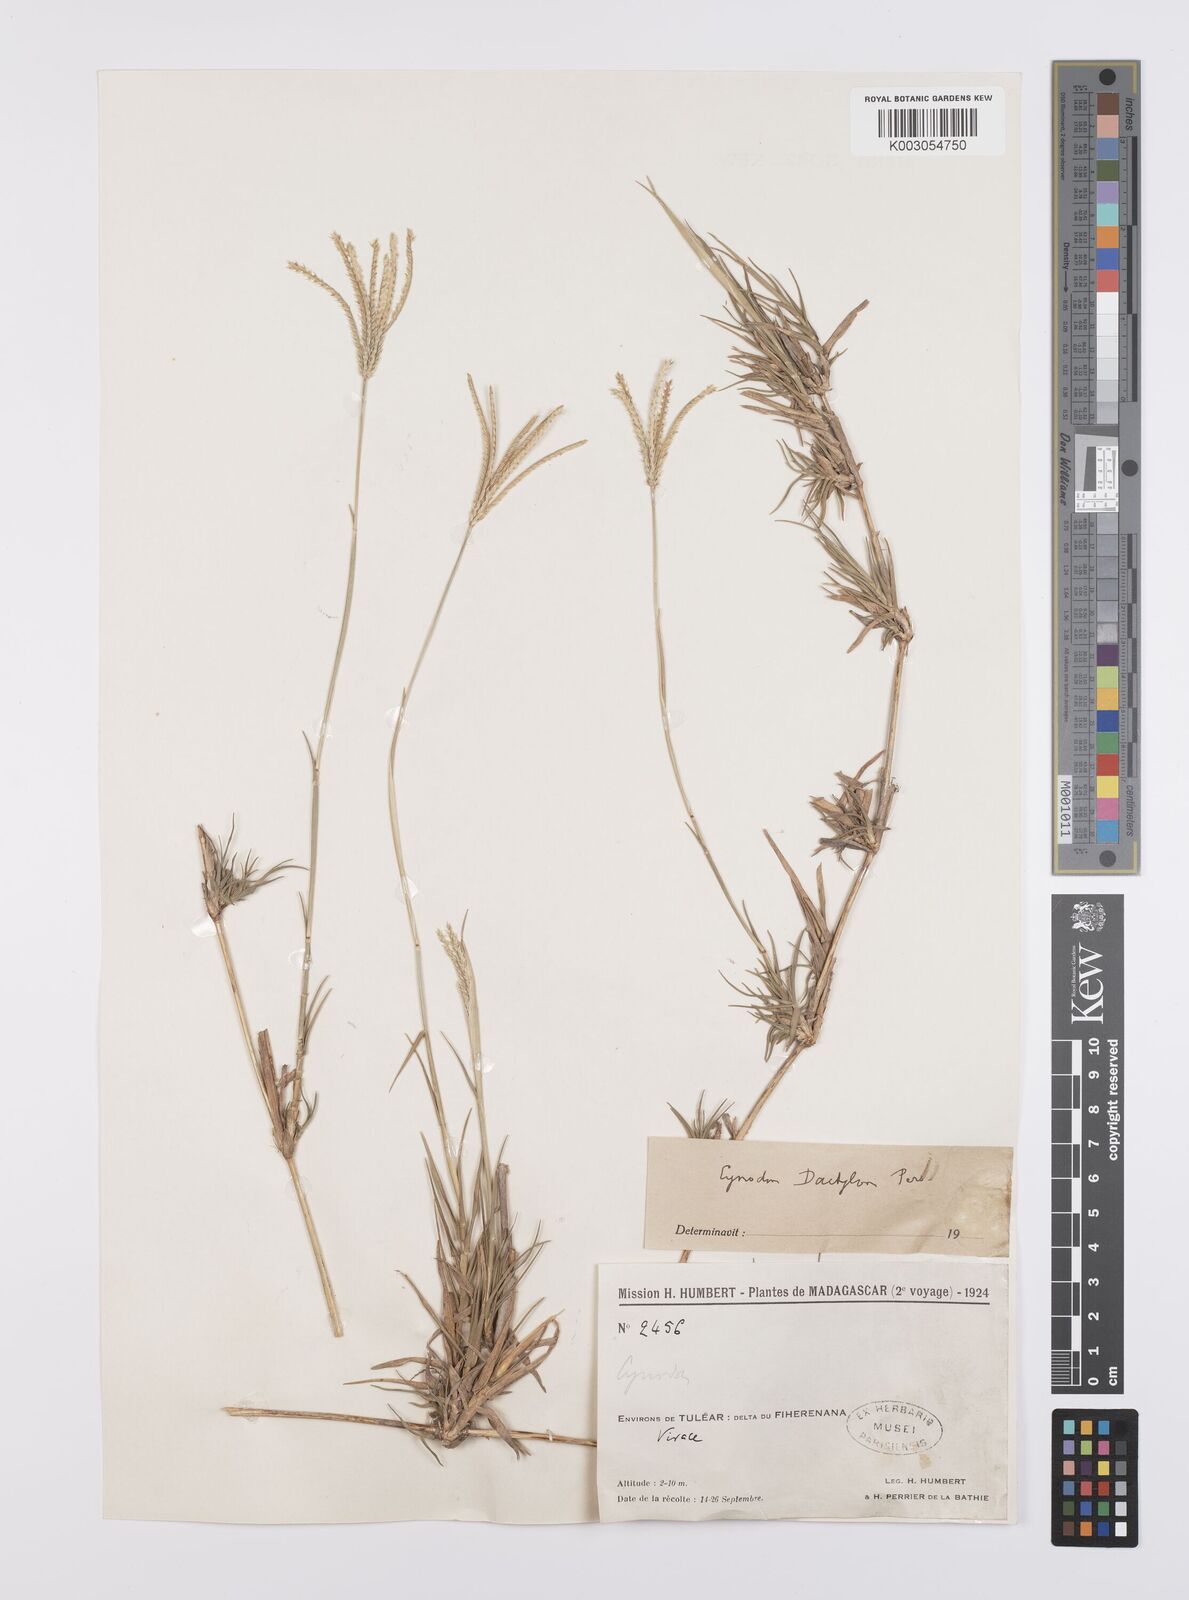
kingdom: Plantae
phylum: Tracheophyta
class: Liliopsida
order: Poales
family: Poaceae
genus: Cynodon
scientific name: Cynodon dactylon
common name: Bermuda grass
